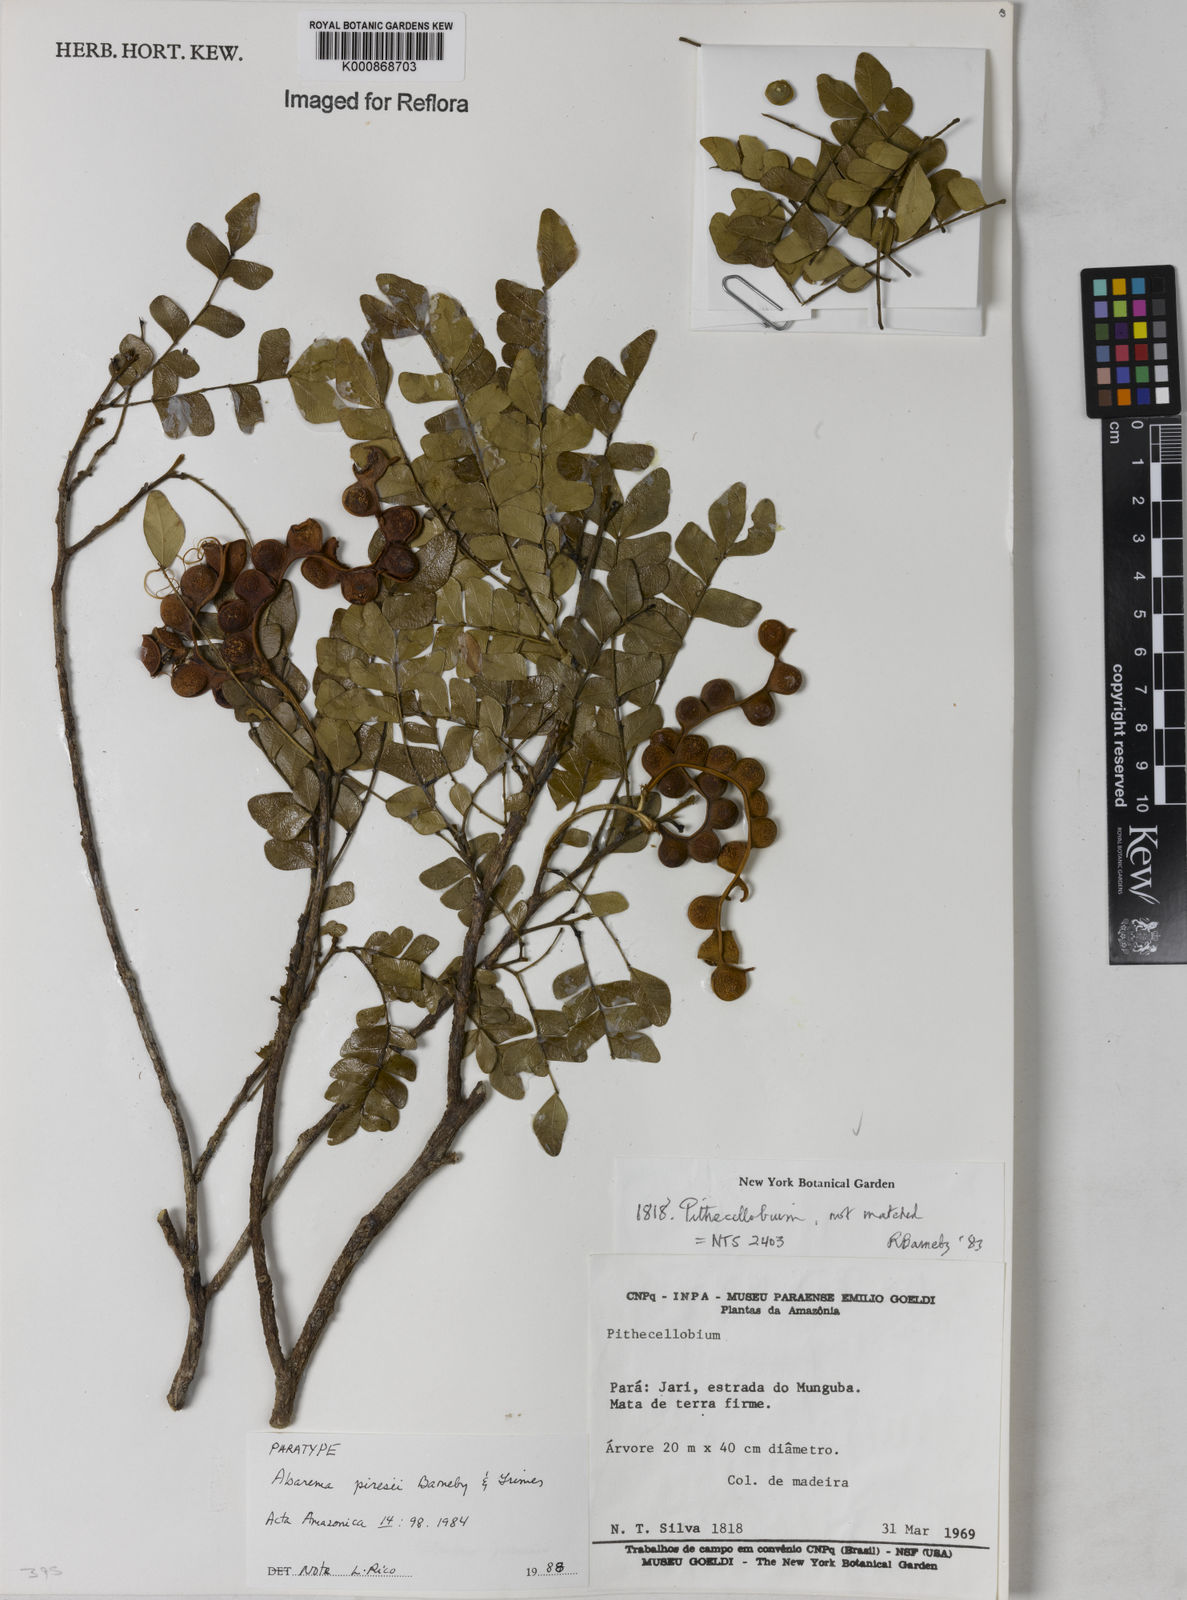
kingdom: Plantae
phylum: Tracheophyta
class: Magnoliopsida
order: Fabales
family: Fabaceae
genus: Jupunba
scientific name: Jupunba piresii
